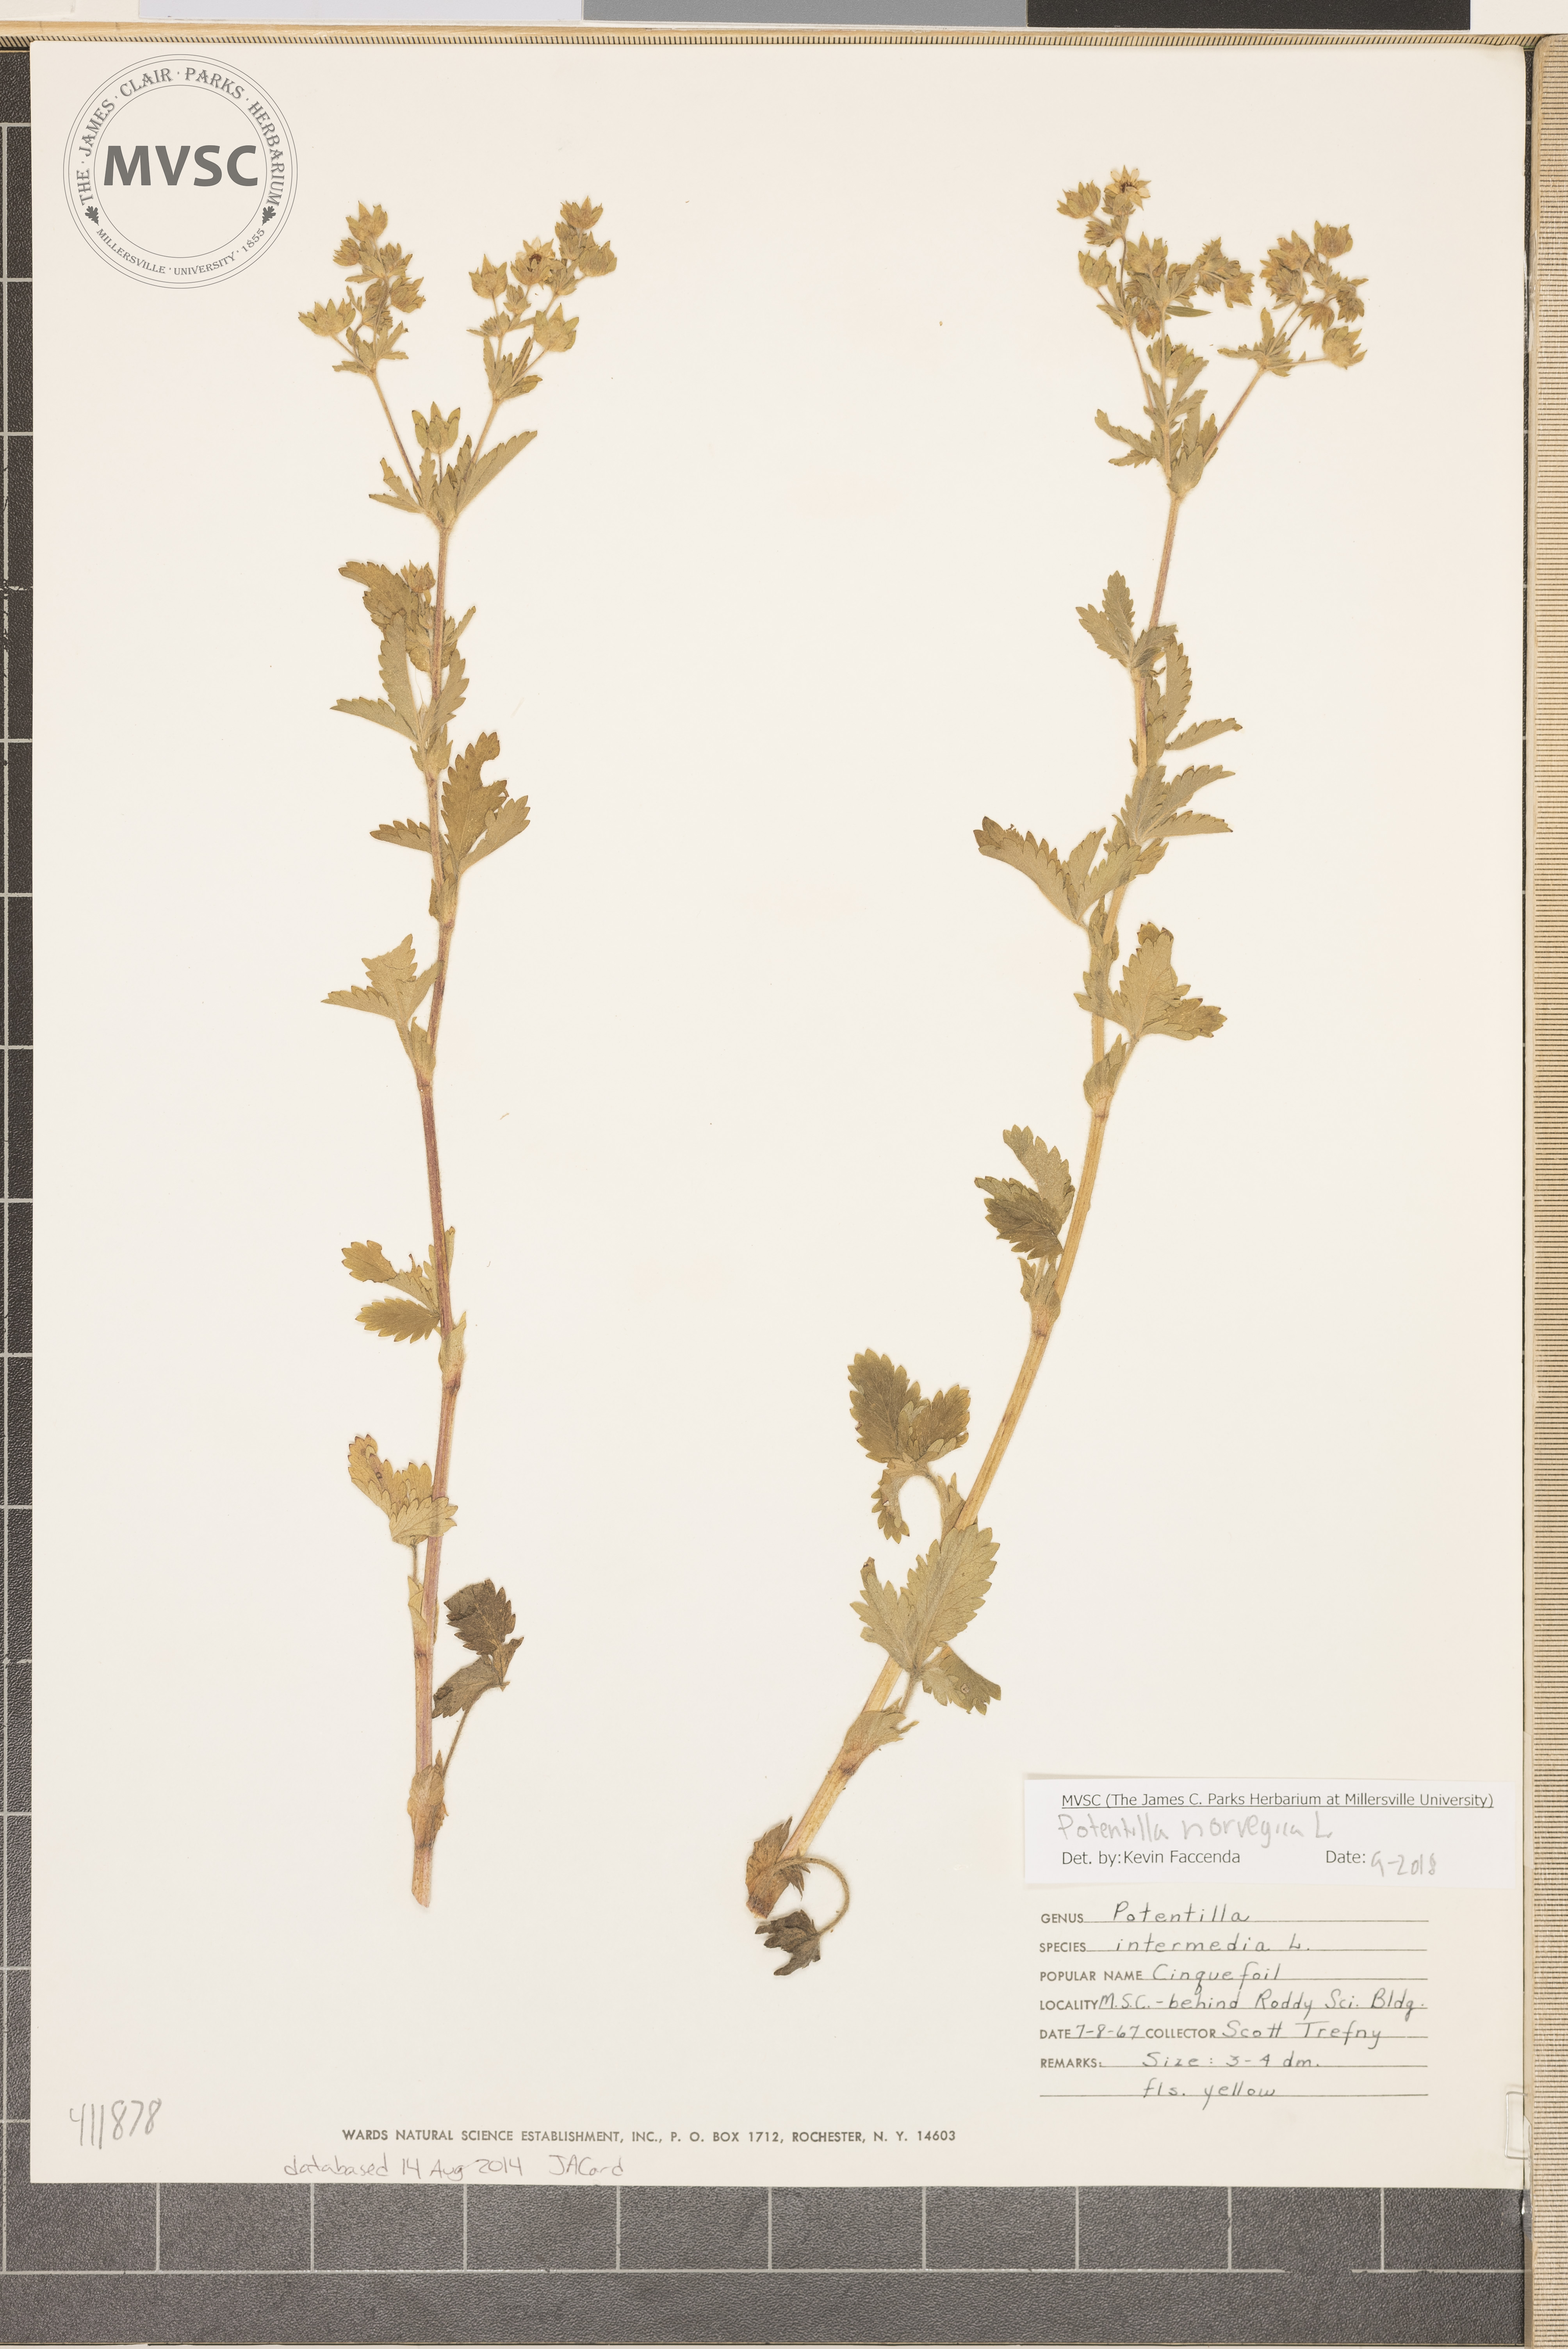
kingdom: Plantae
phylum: Tracheophyta
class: Magnoliopsida
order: Rosales
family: Rosaceae
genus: Potentilla
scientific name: Potentilla norvegica
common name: Cinquefoil
